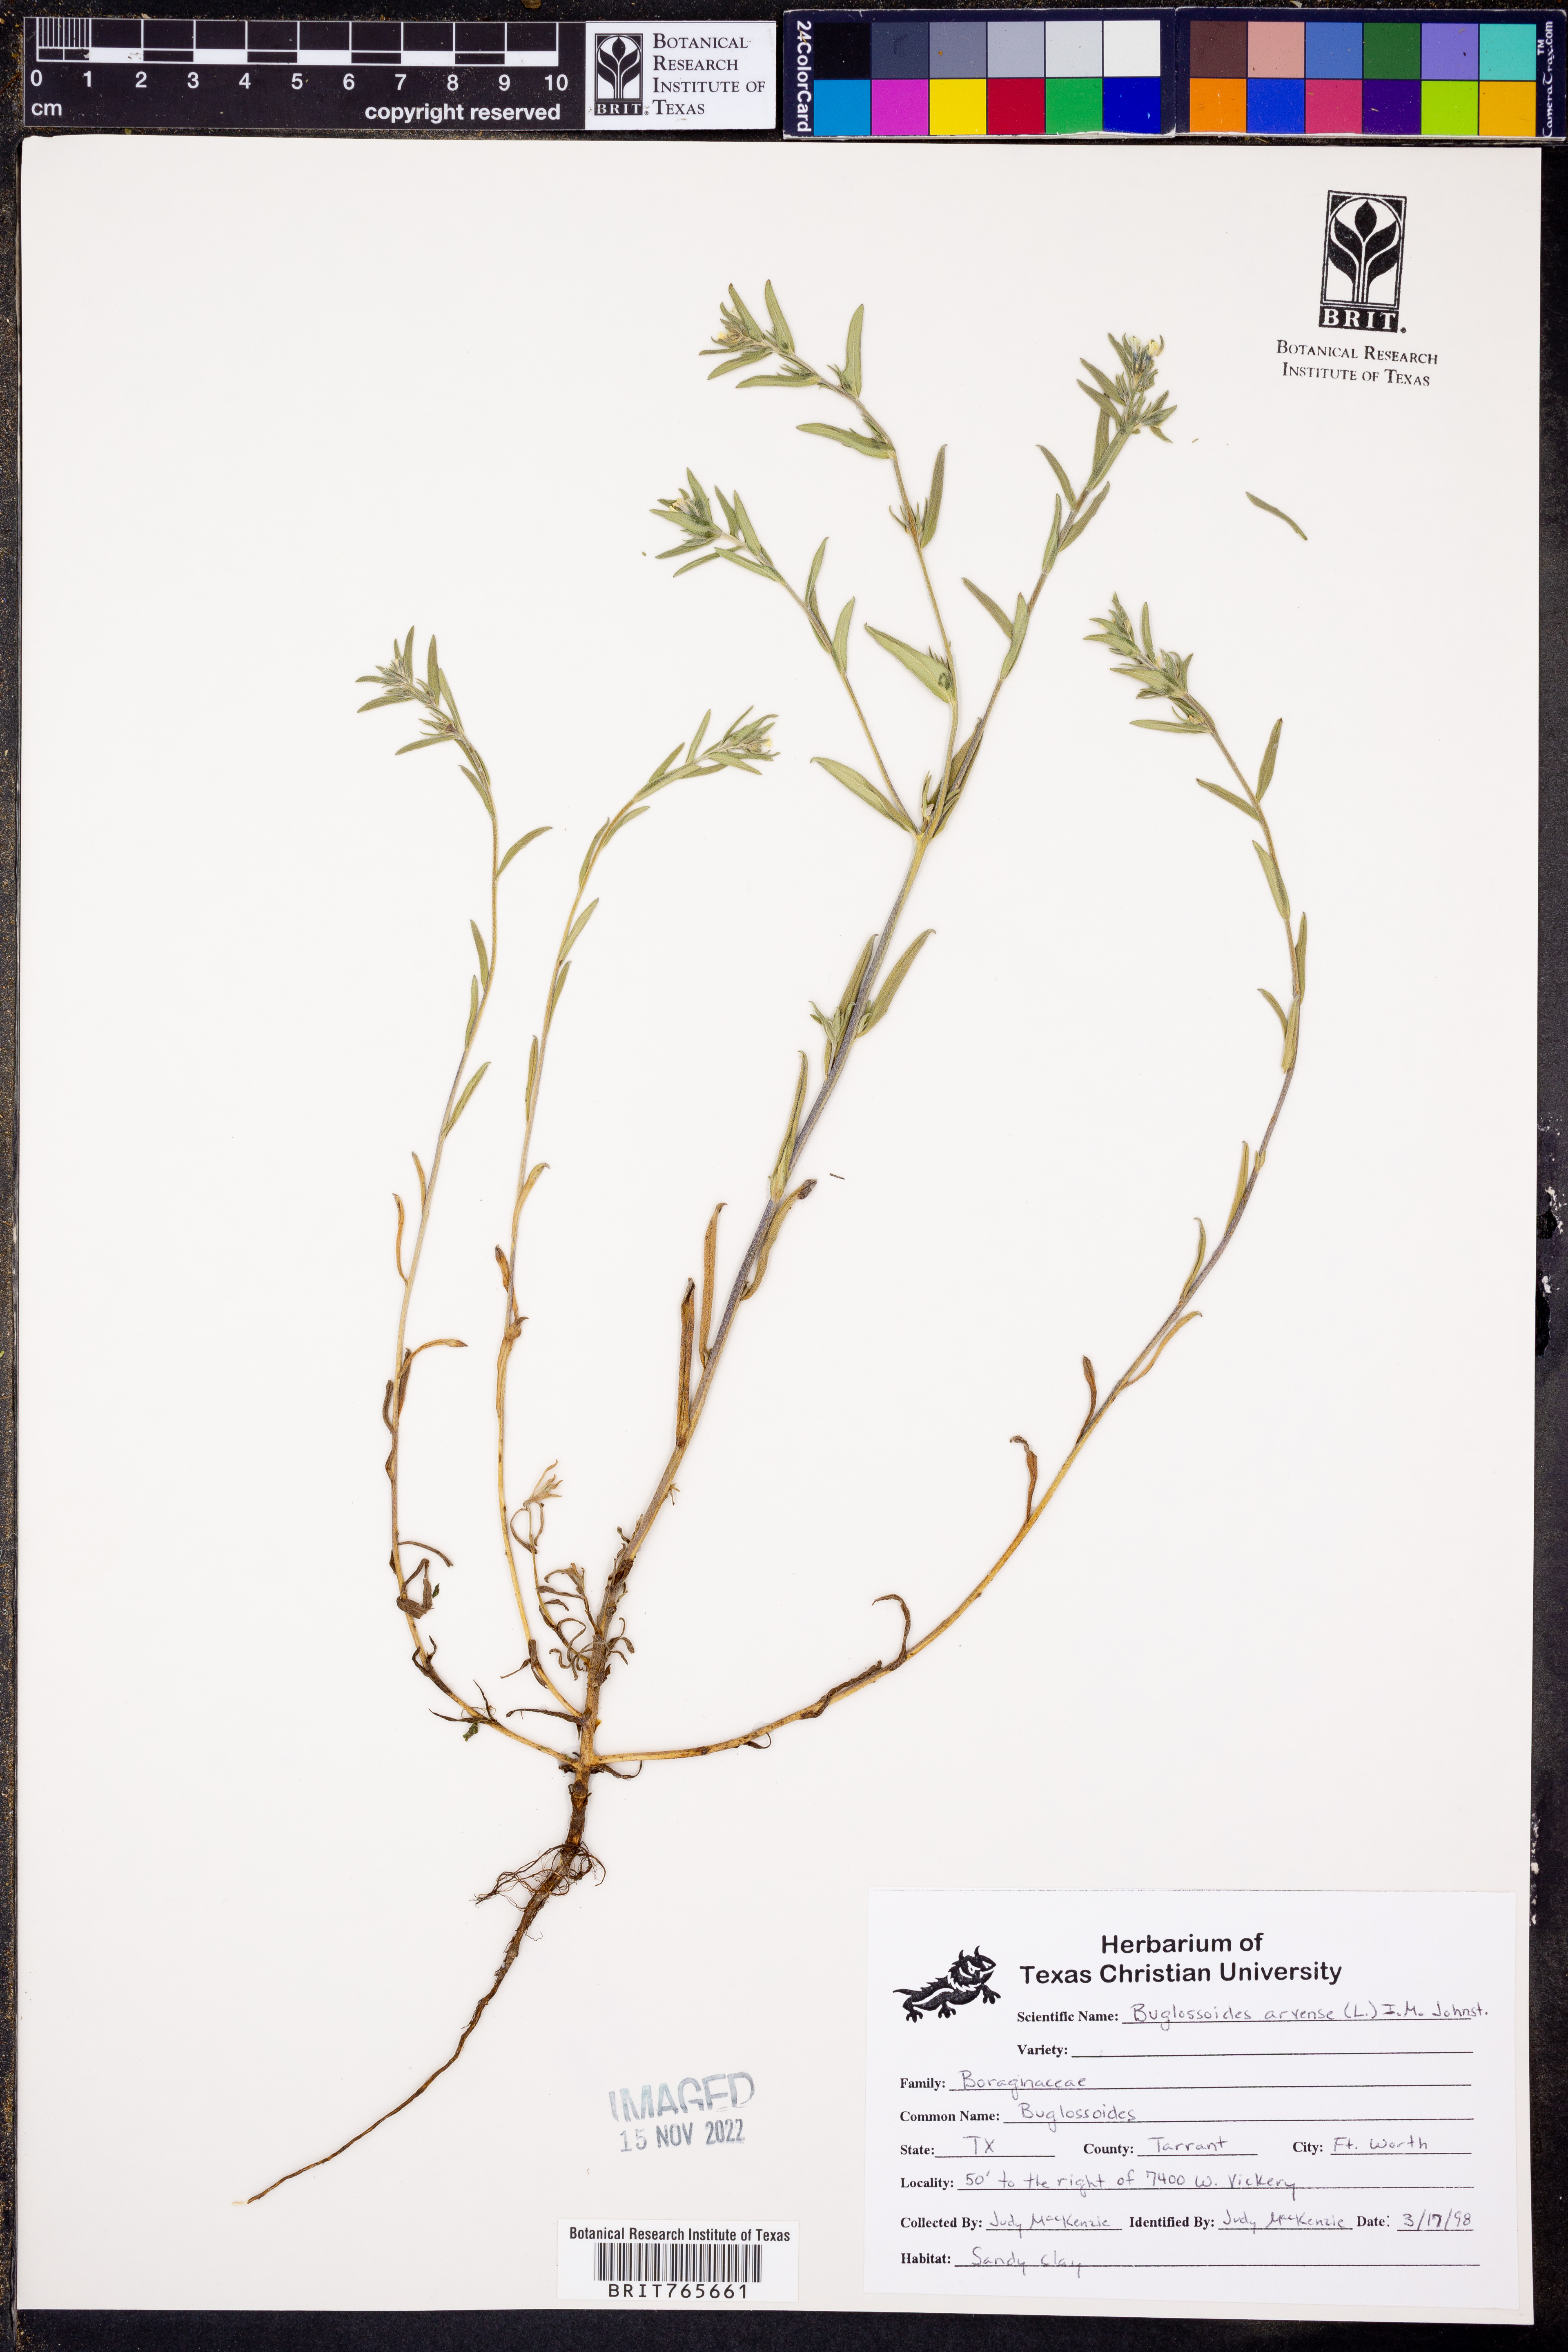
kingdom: Plantae
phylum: Tracheophyta
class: Magnoliopsida
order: Boraginales
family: Boraginaceae
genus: Buglossoides
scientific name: Buglossoides arvensis
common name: Corn gromwell
